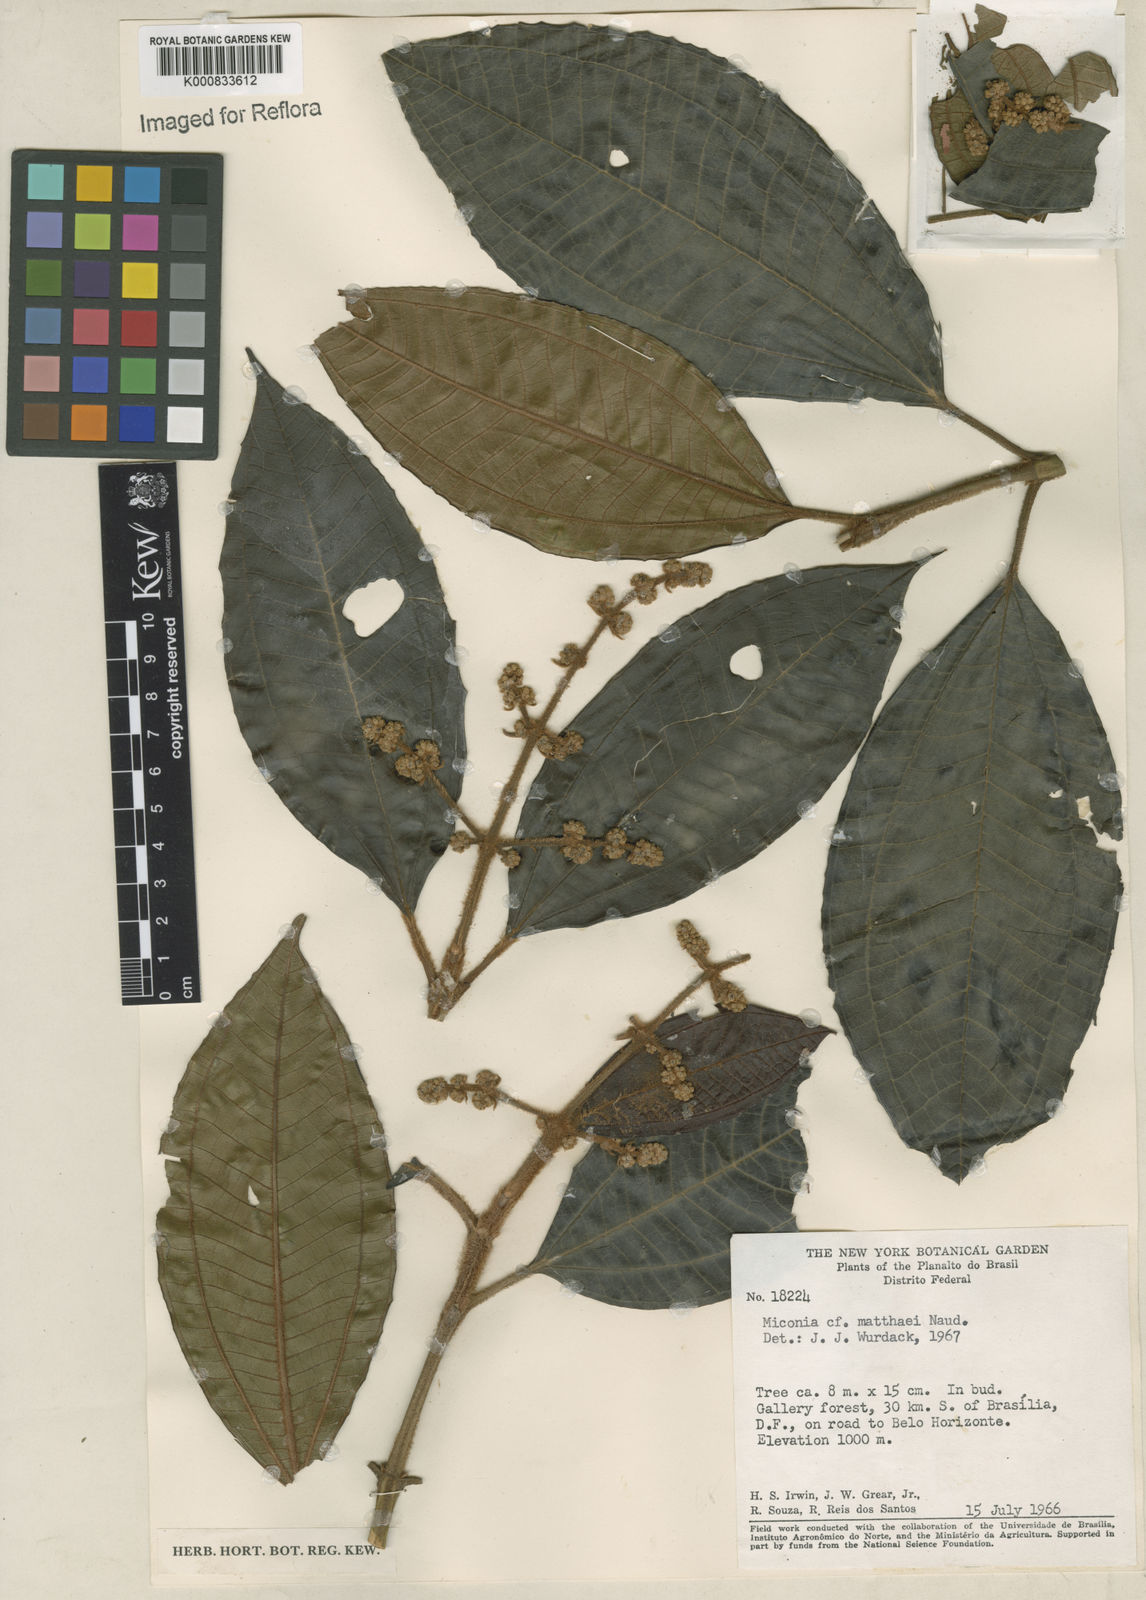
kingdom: Plantae
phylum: Tracheophyta
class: Magnoliopsida
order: Myrtales
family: Melastomataceae
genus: Miconia
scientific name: Miconia matthaei
